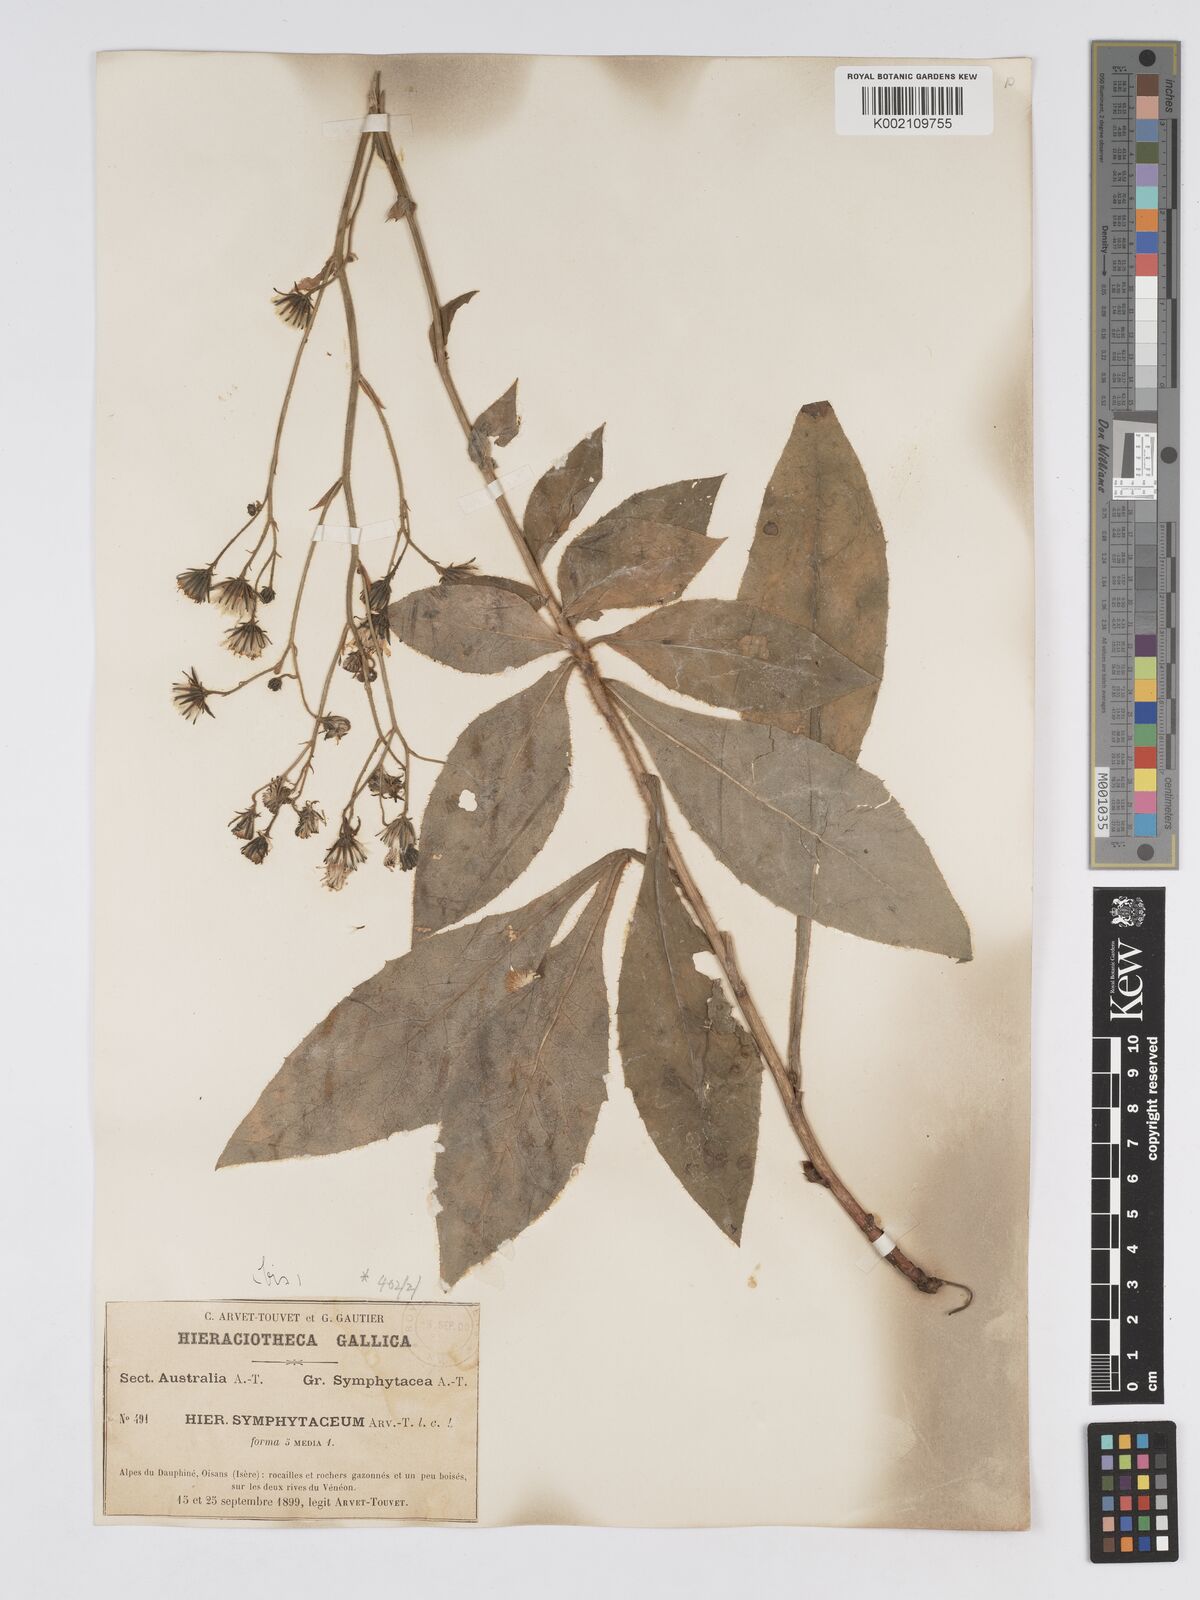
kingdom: Plantae
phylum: Tracheophyta
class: Magnoliopsida
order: Asterales
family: Asteraceae
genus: Hieracium
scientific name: Hieracium symphytaceum
